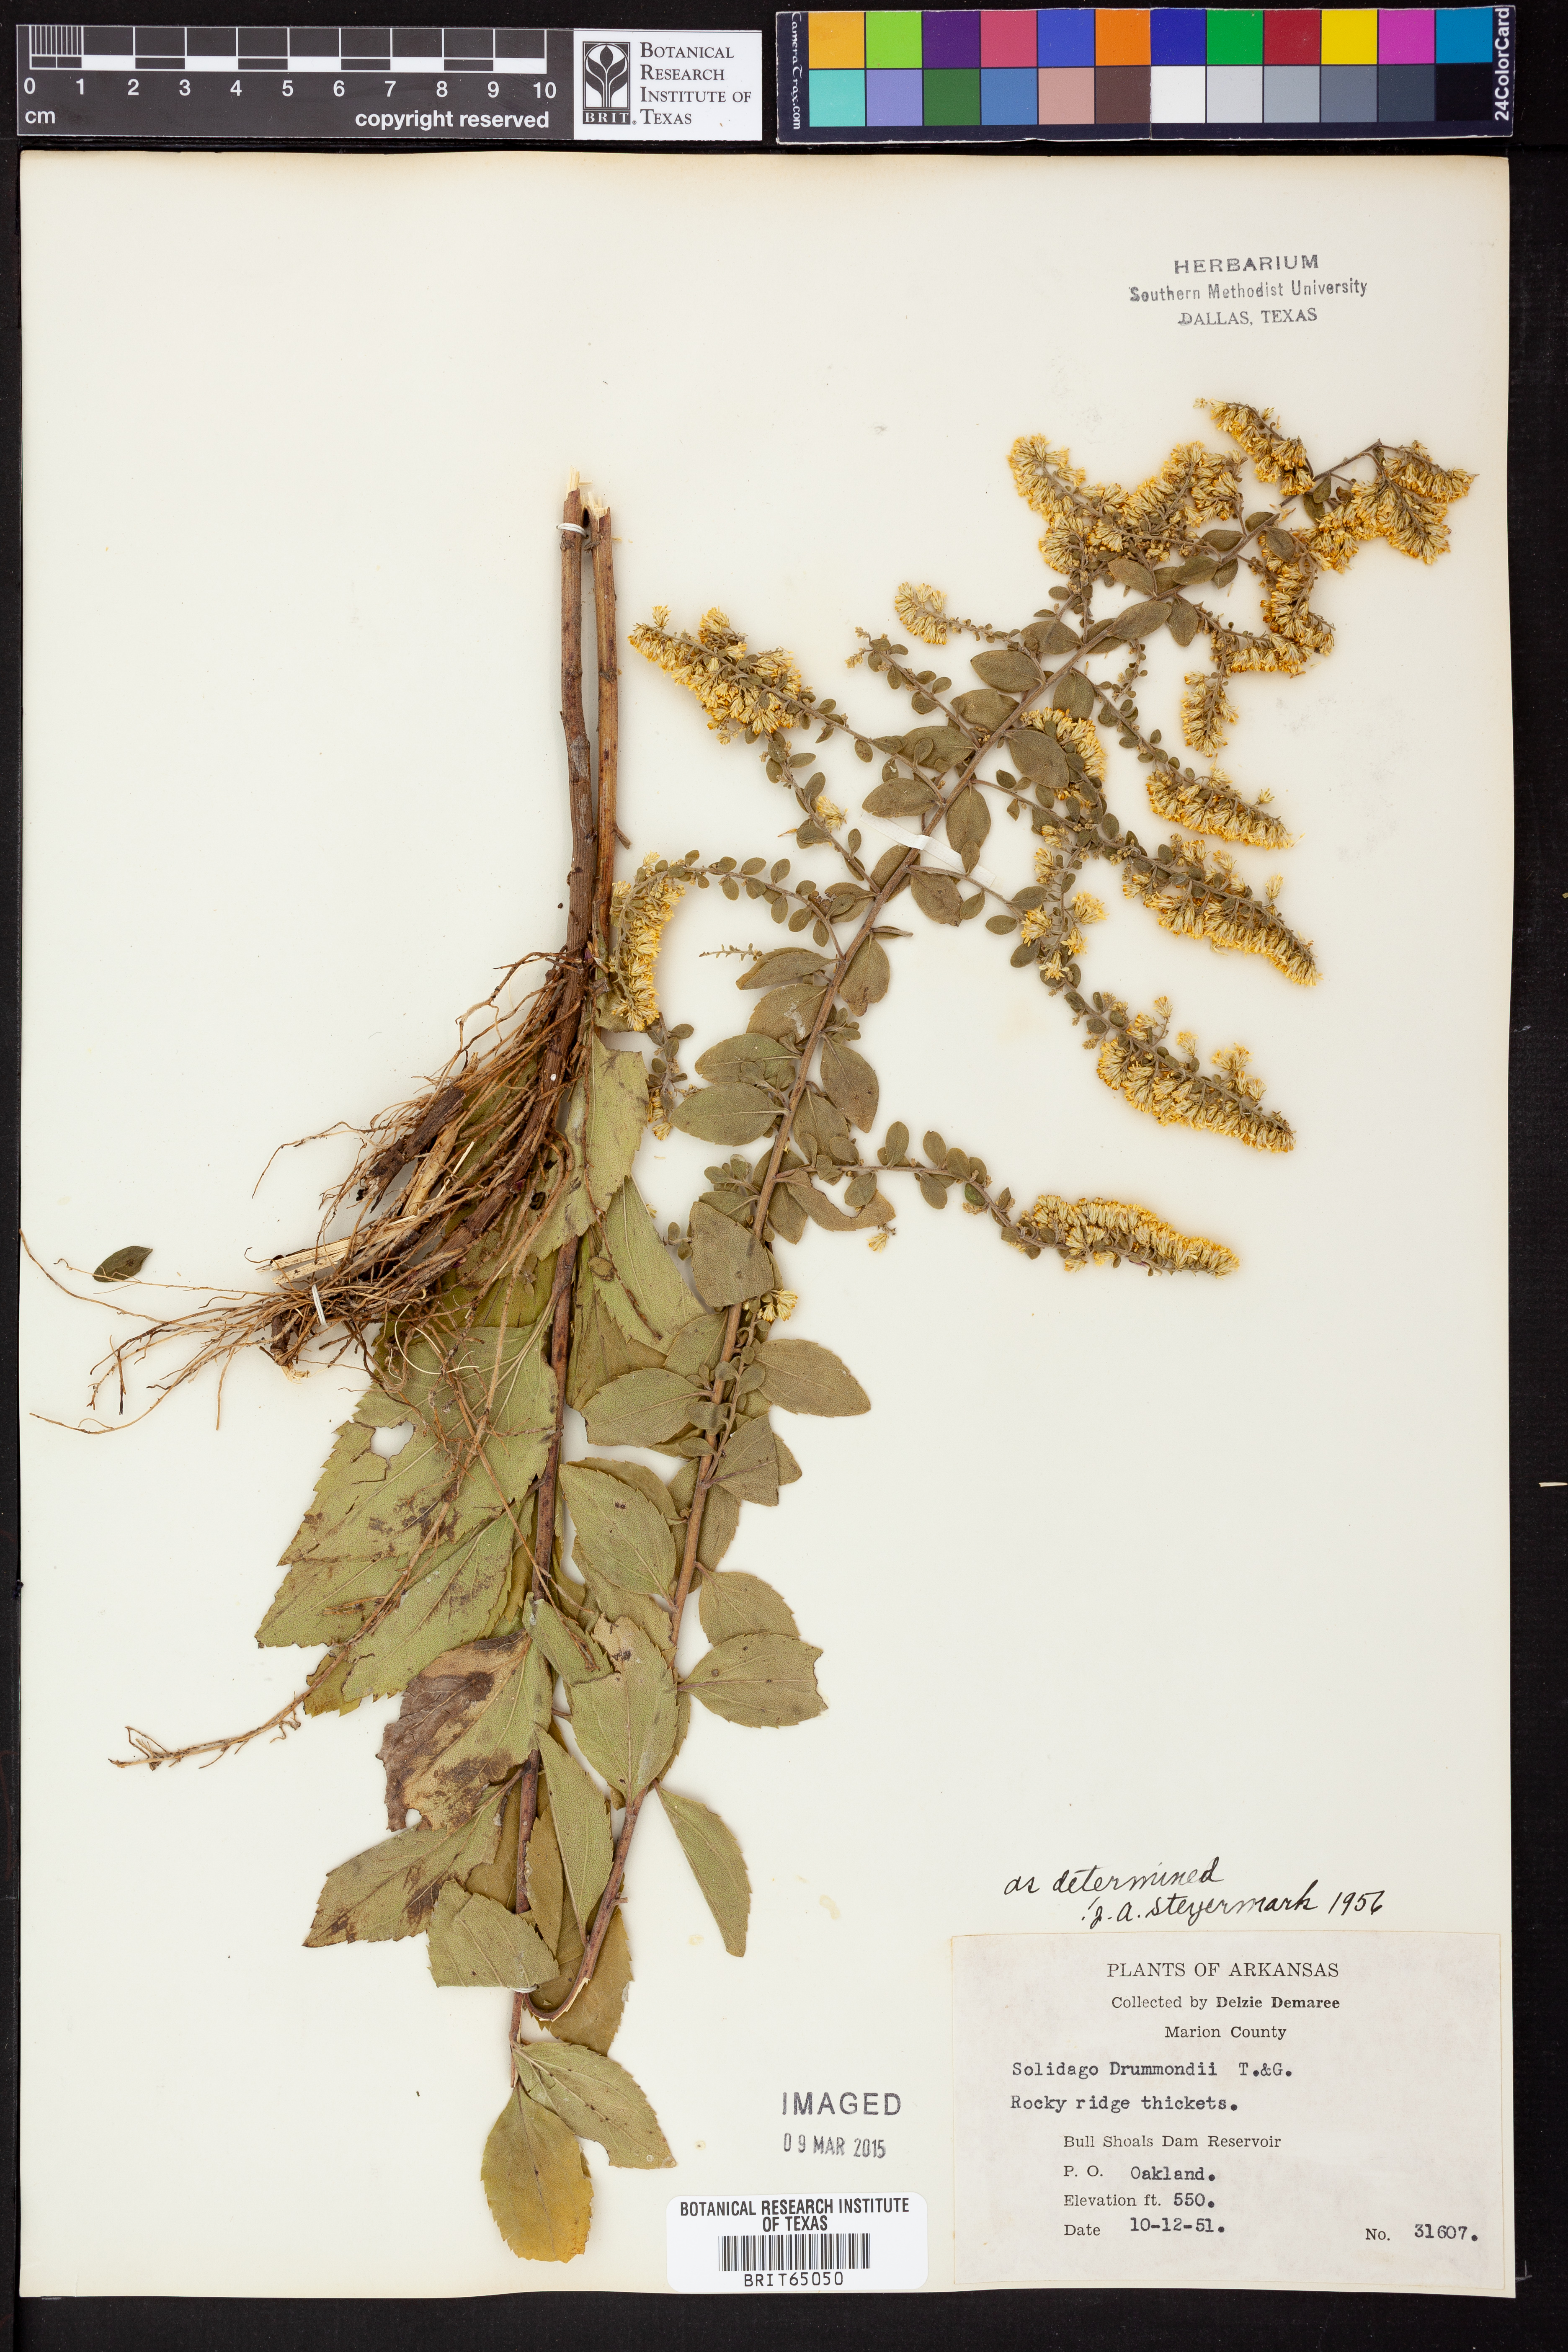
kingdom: Plantae
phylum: Tracheophyta
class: Magnoliopsida
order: Asterales
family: Asteraceae
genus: Solidago
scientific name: Solidago drummondii
